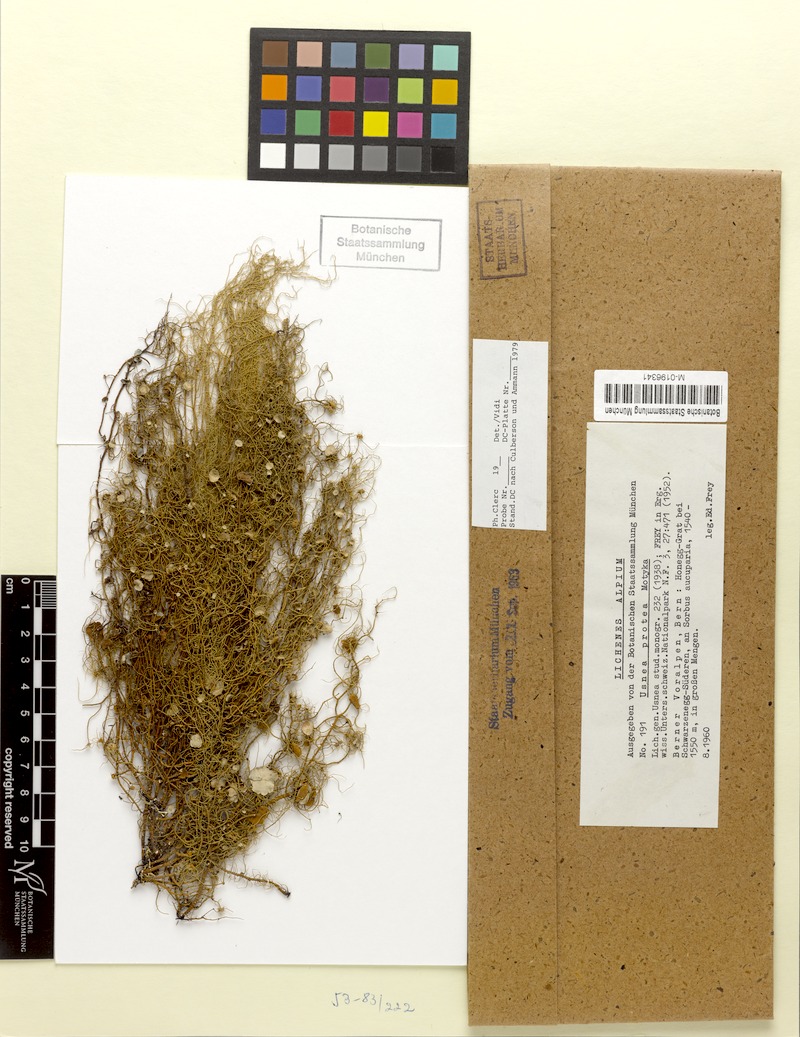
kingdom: Fungi
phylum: Ascomycota
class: Lecanoromycetes
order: Lecanorales
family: Parmeliaceae
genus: Usnea
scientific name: Usnea quasirigida
